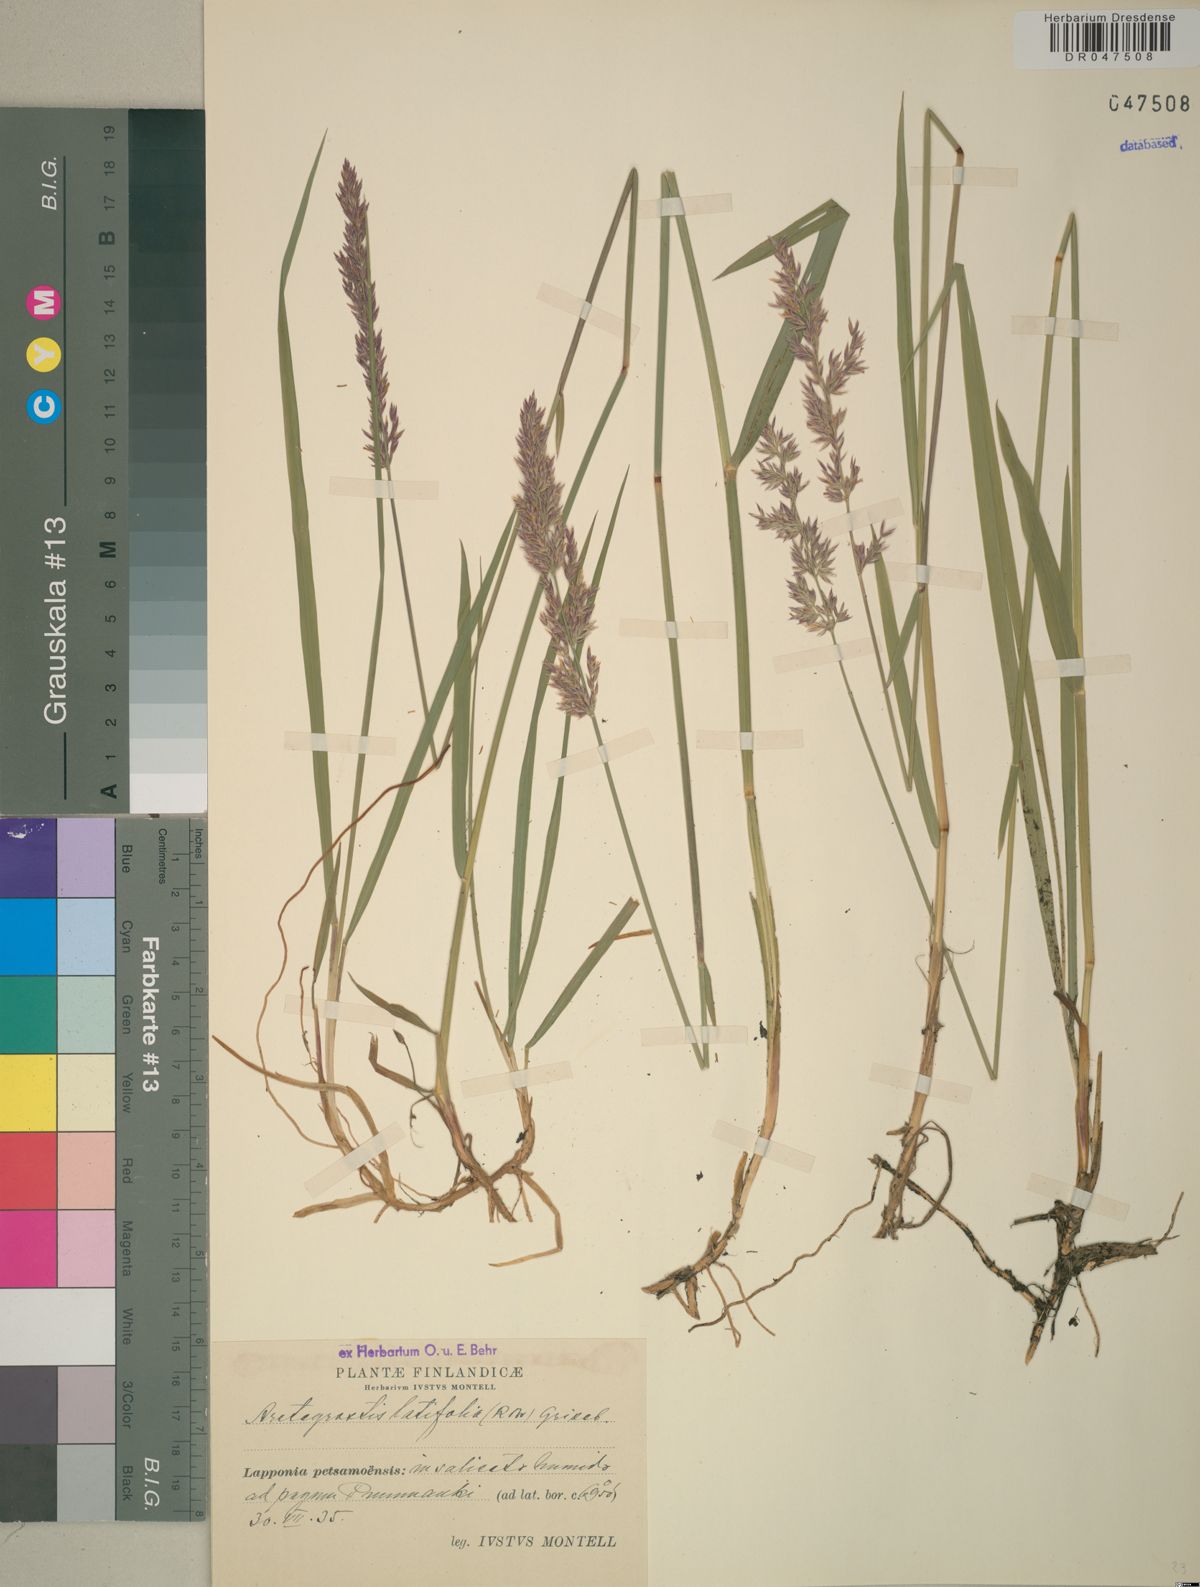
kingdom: Plantae
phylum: Tracheophyta
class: Liliopsida
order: Poales
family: Poaceae
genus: Arctagrostis
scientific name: Arctagrostis latifolia
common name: Arctic grass
